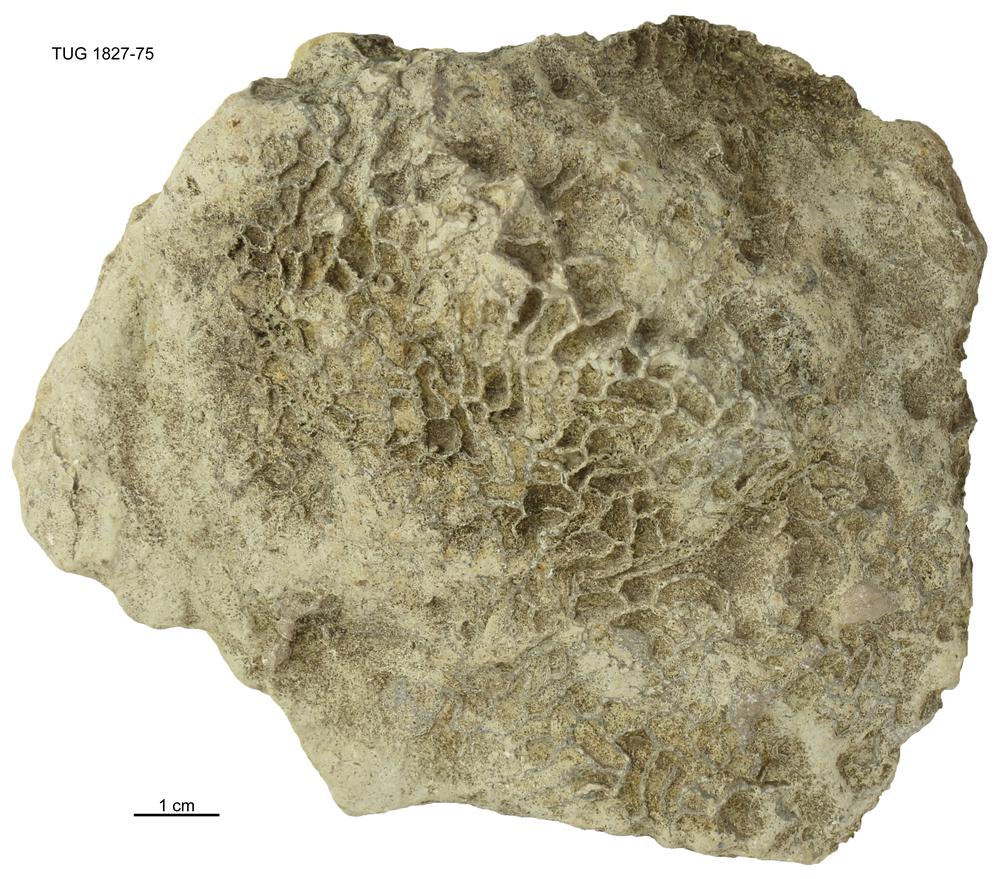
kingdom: Animalia
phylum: Cnidaria
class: Anthozoa
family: Cateniporidae
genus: Catenipora
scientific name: Catenipora
